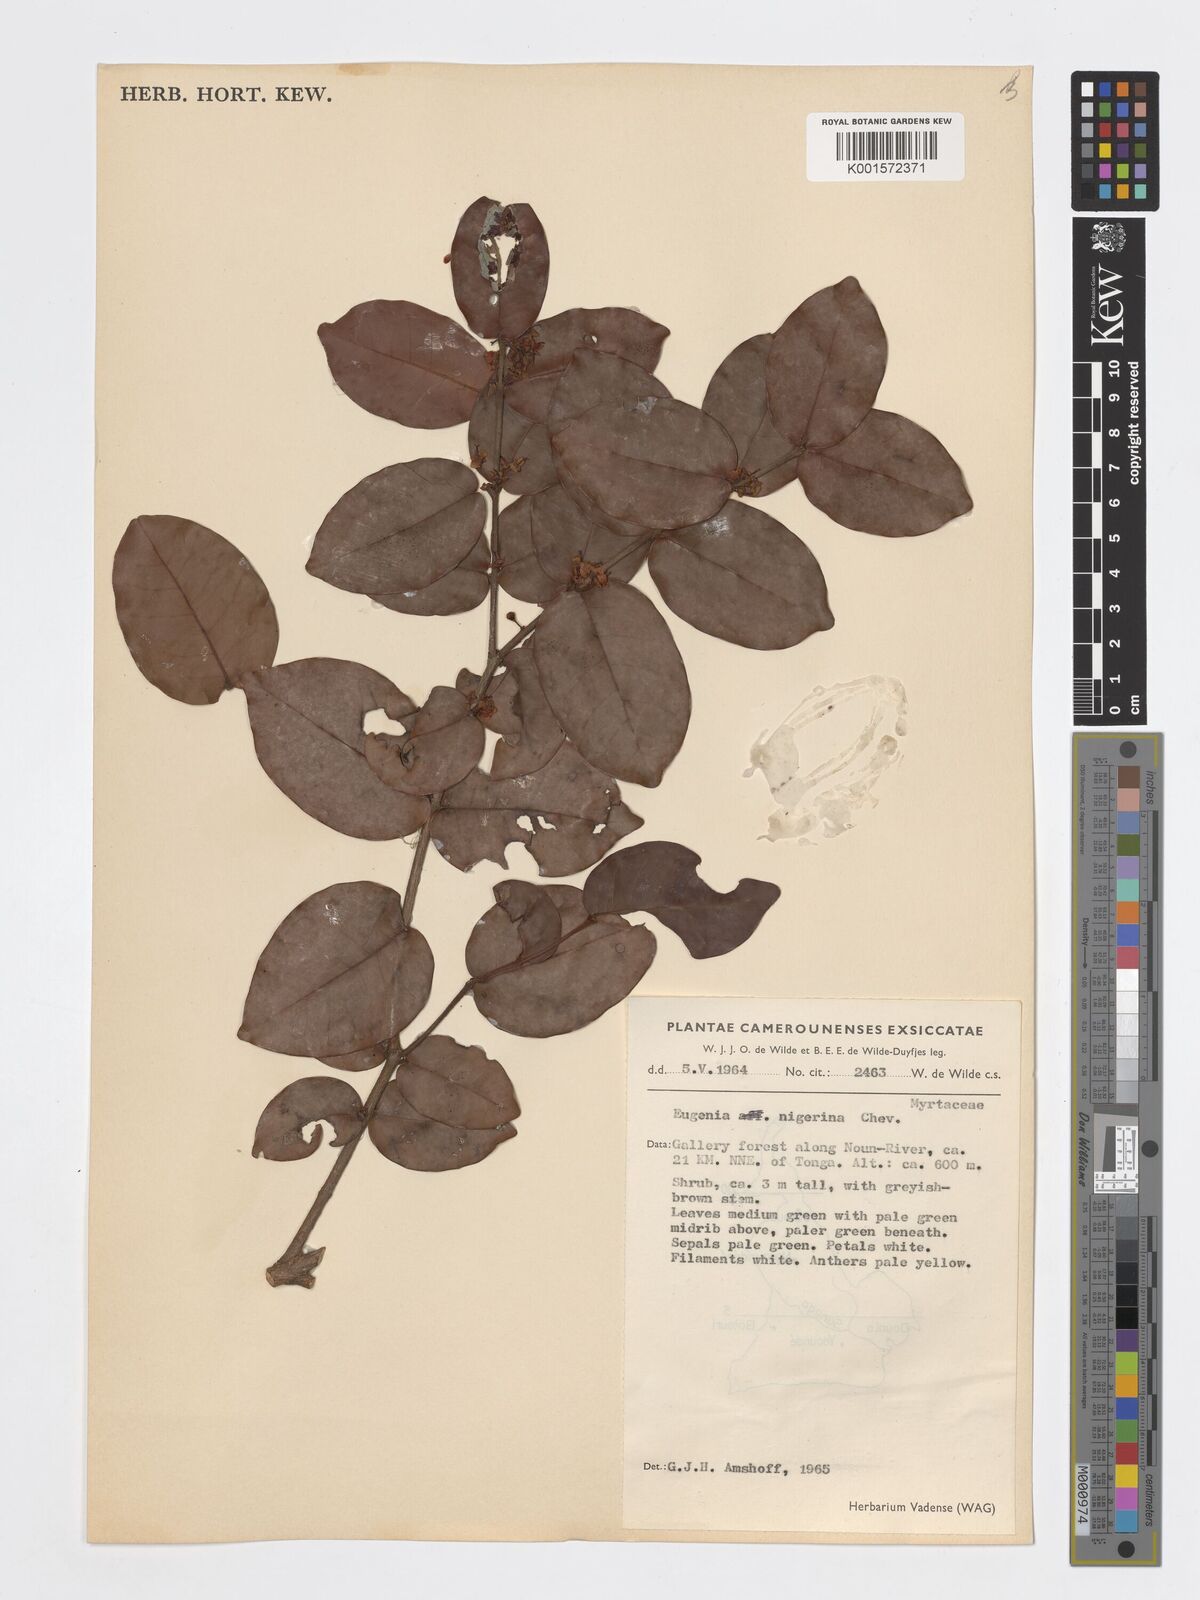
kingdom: Plantae
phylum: Tracheophyta
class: Magnoliopsida
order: Myrtales
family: Myrtaceae
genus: Eugenia
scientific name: Eugenia nigerina
